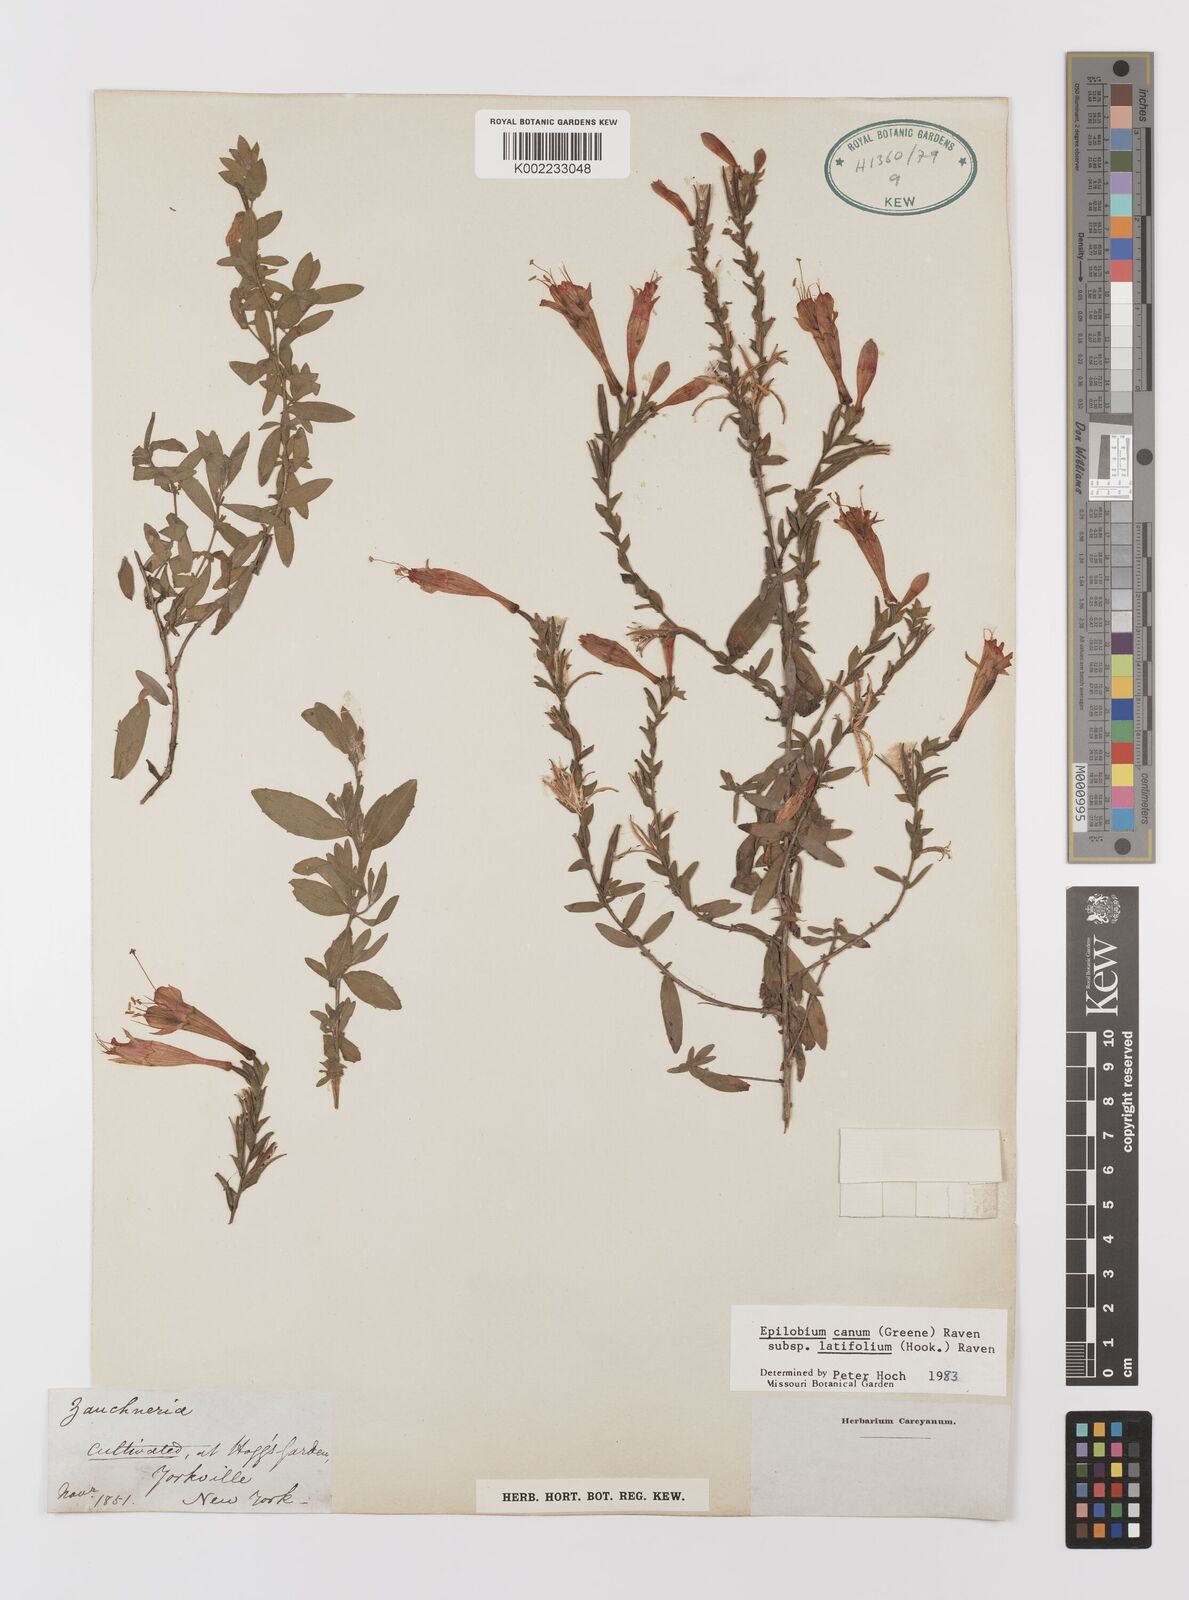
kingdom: Plantae
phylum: Tracheophyta
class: Magnoliopsida
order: Myrtales
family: Onagraceae
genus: Epilobium
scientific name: Epilobium
